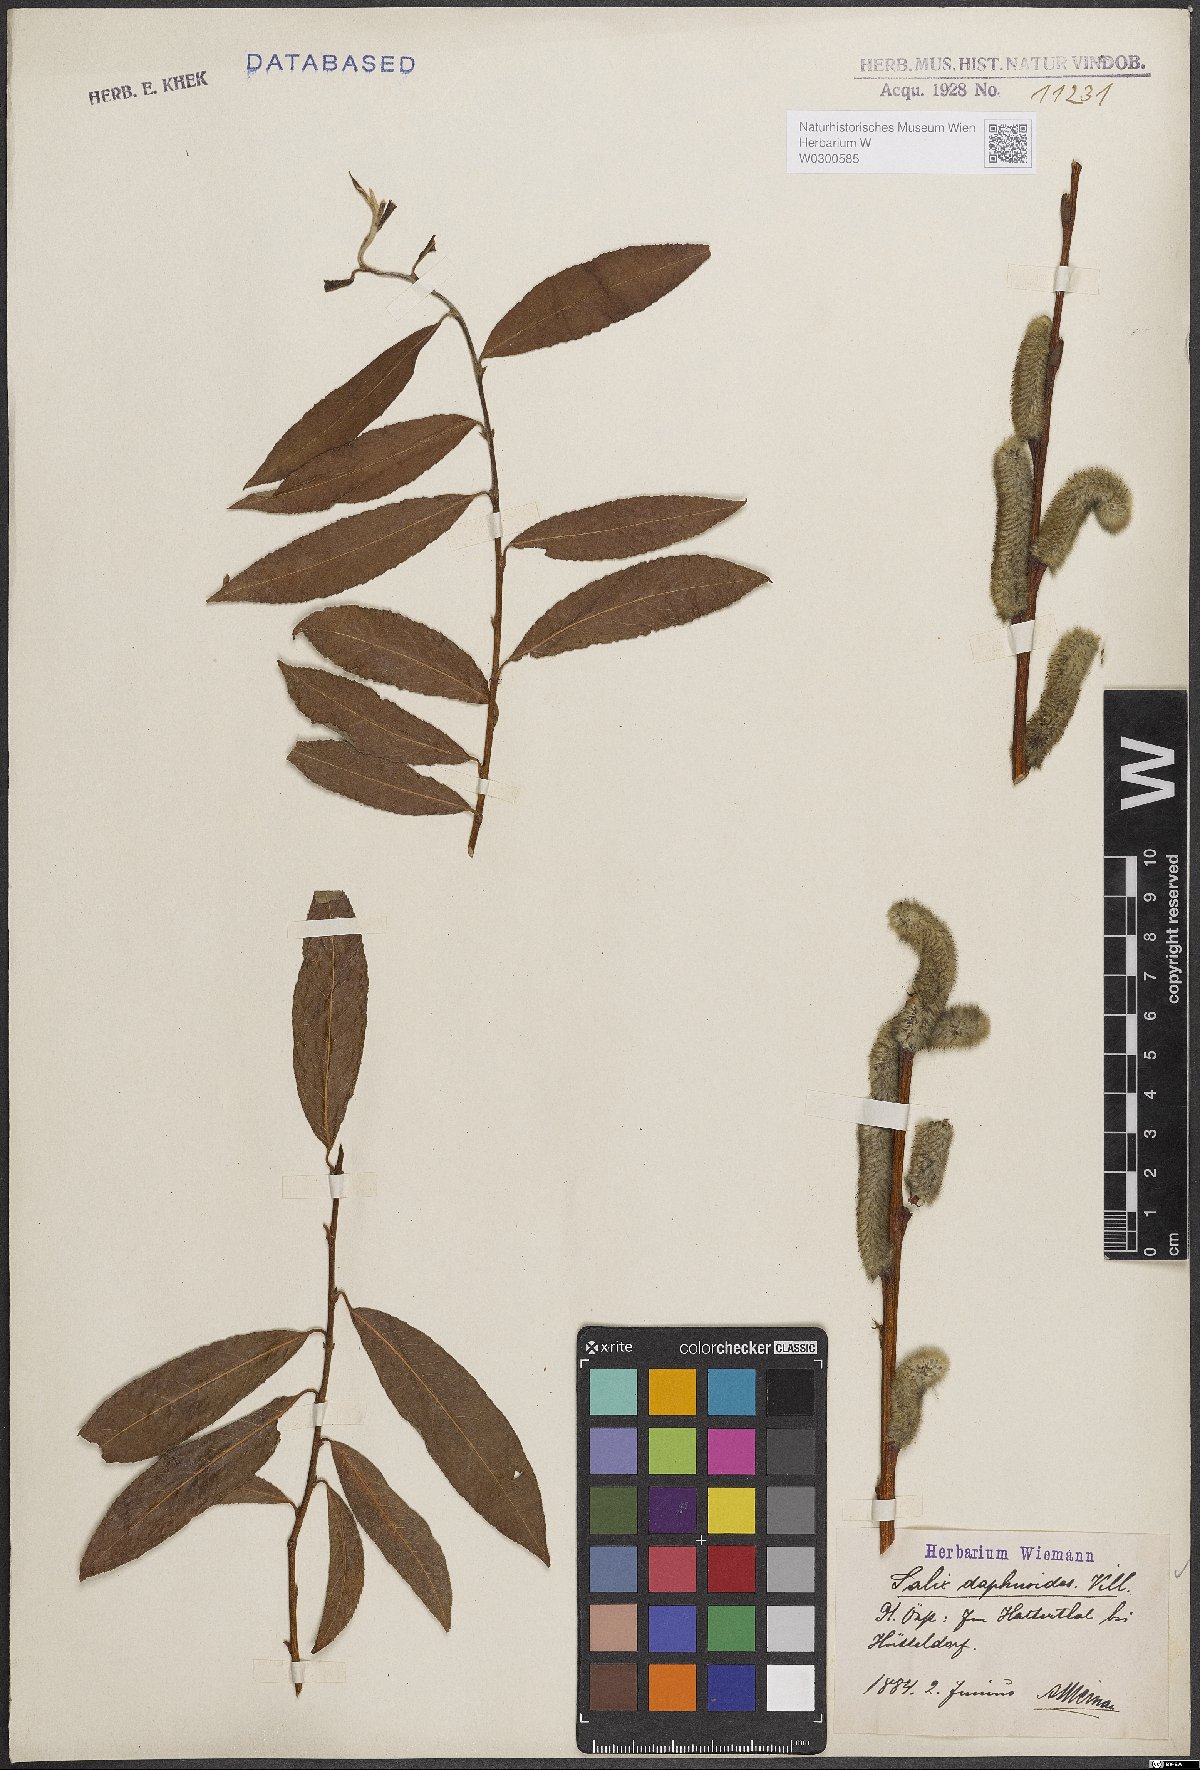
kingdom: Plantae
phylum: Tracheophyta
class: Magnoliopsida
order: Malpighiales
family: Salicaceae
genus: Salix
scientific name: Salix daphnoides
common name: European violet-willow
